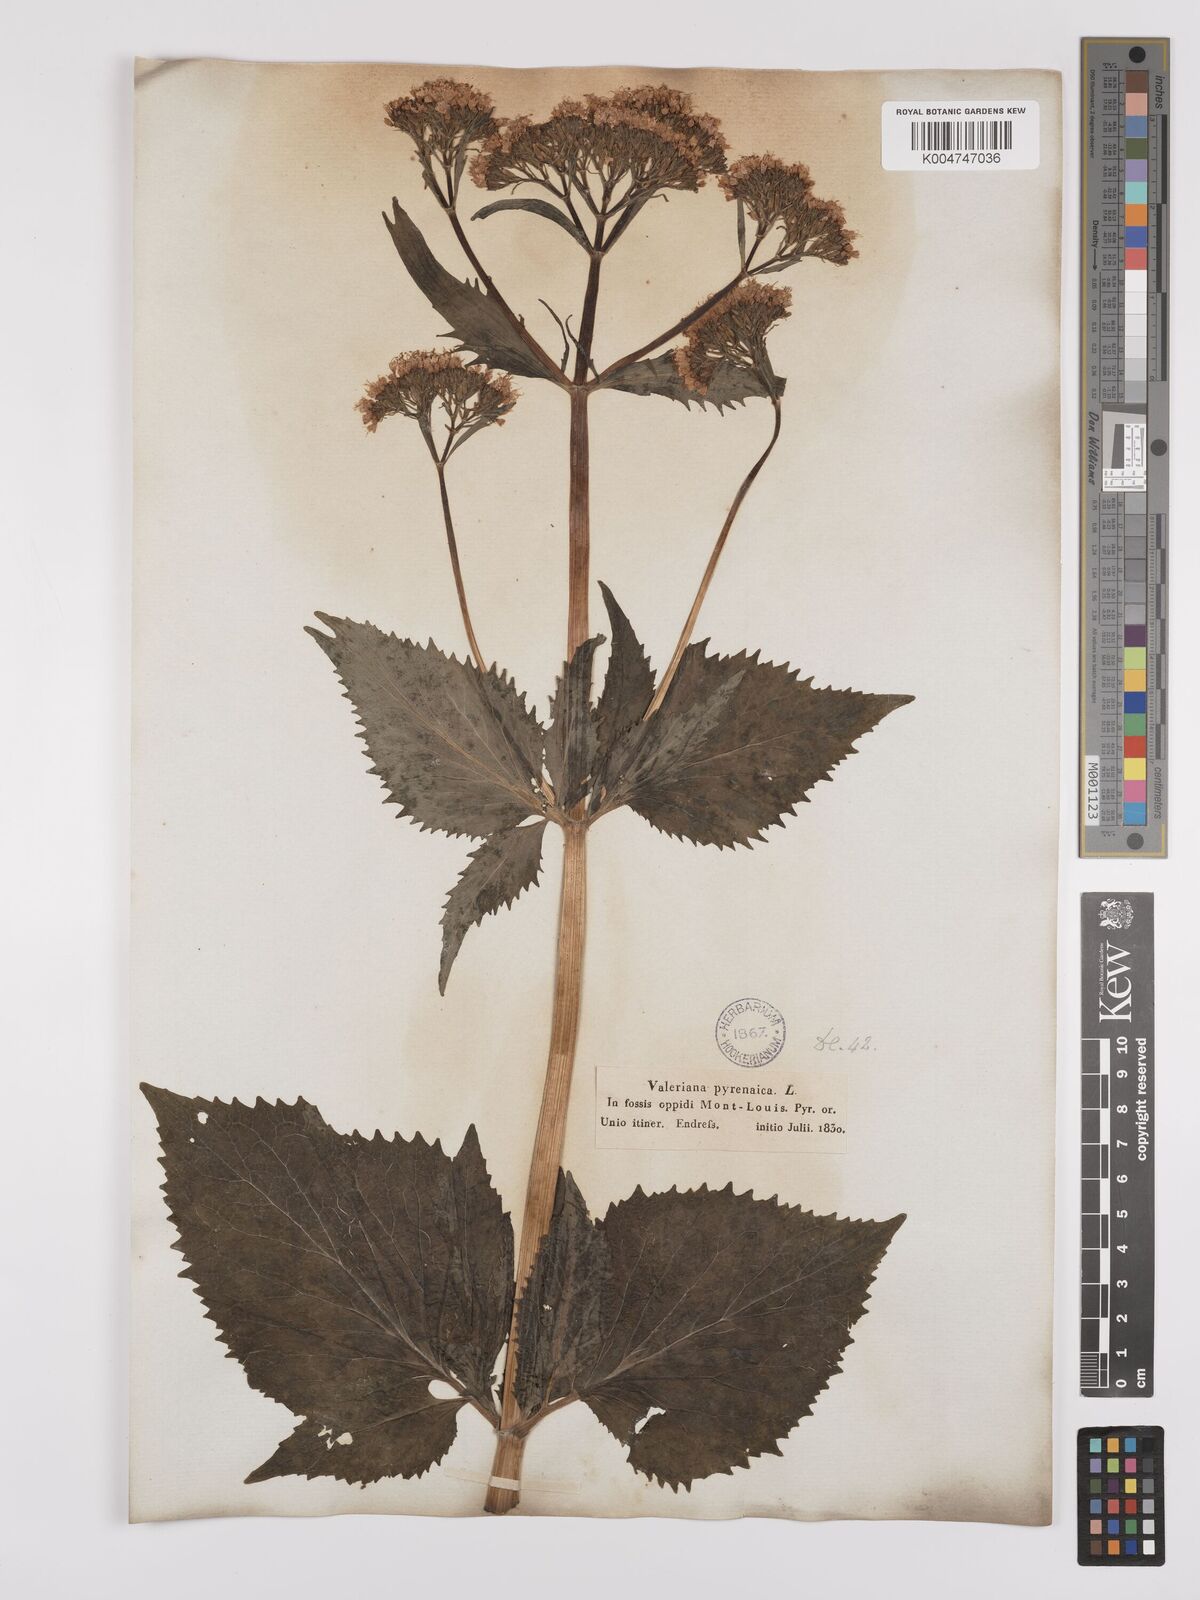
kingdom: Plantae
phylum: Tracheophyta
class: Magnoliopsida
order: Dipsacales
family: Caprifoliaceae
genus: Valeriana
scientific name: Valeriana pyrenaica
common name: Pyrenean valerian
